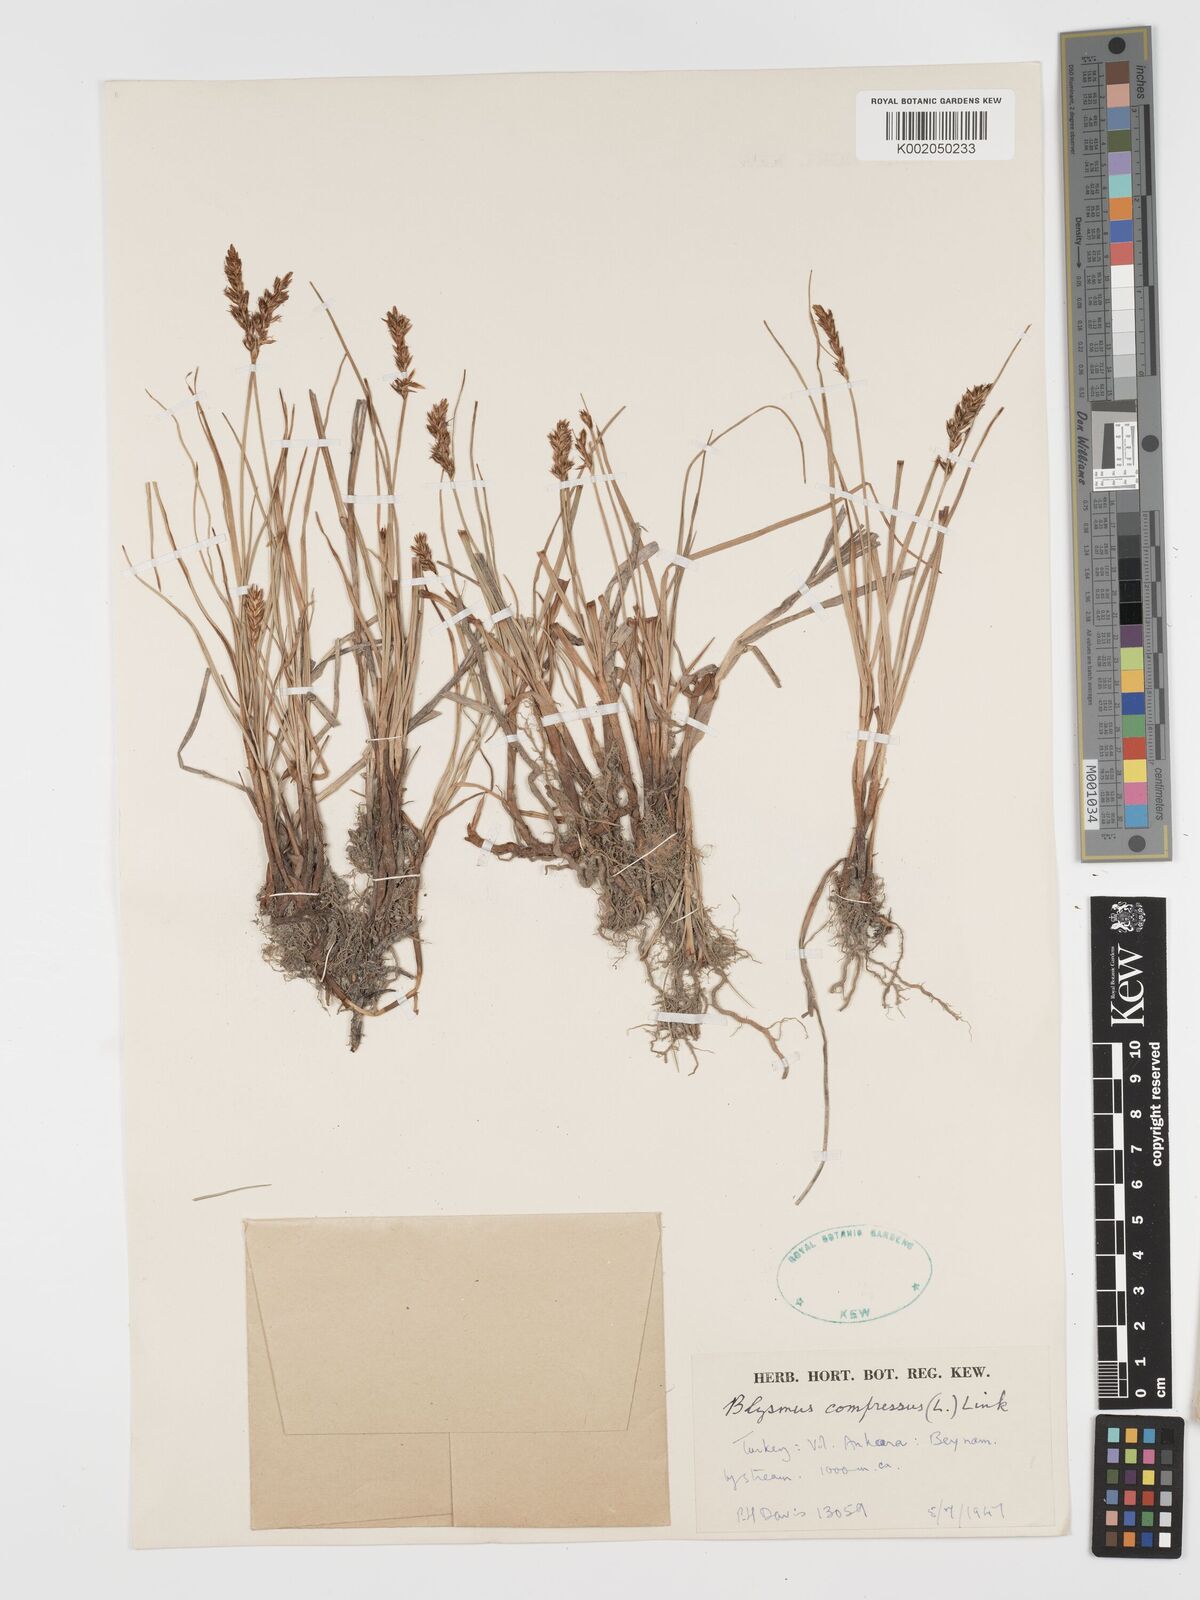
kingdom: Plantae
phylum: Tracheophyta
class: Liliopsida
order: Poales
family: Cyperaceae
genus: Blysmus
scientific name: Blysmus compressus
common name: Flat-sedge
